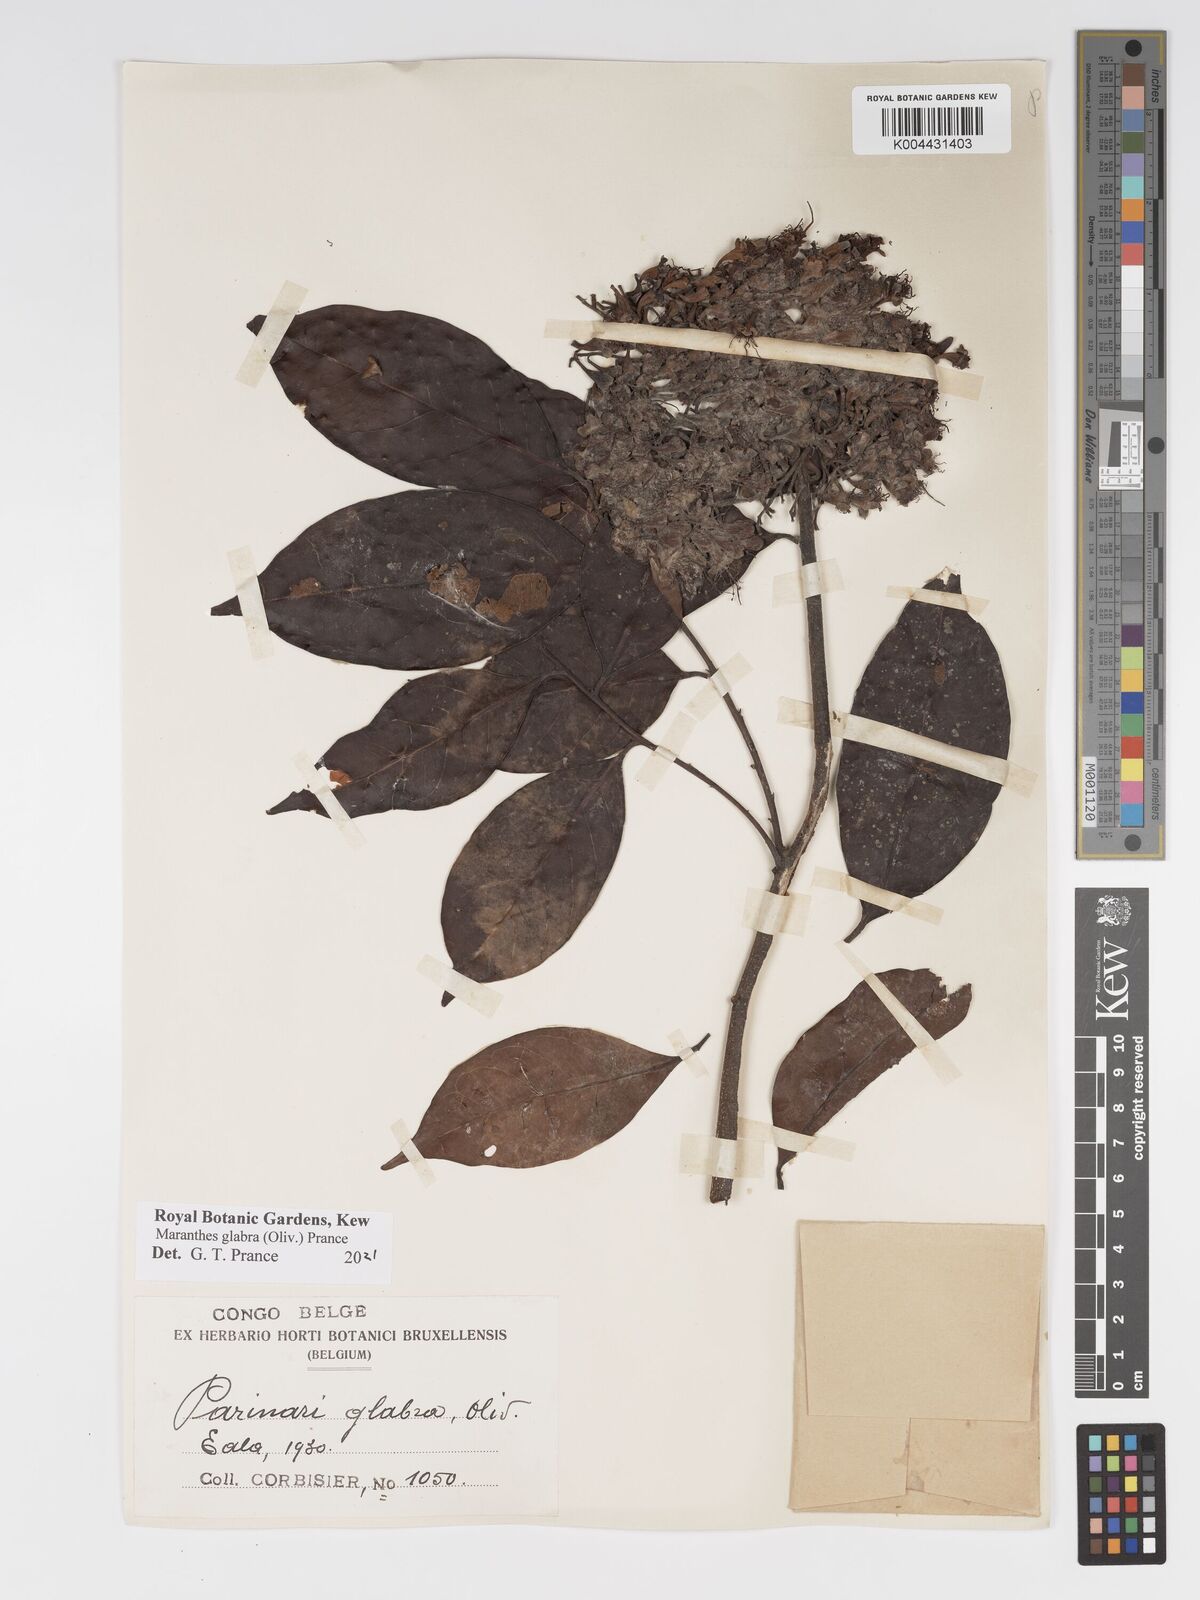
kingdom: Plantae
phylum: Tracheophyta
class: Magnoliopsida
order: Malpighiales
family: Chrysobalanaceae
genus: Maranthes
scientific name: Maranthes glabra
